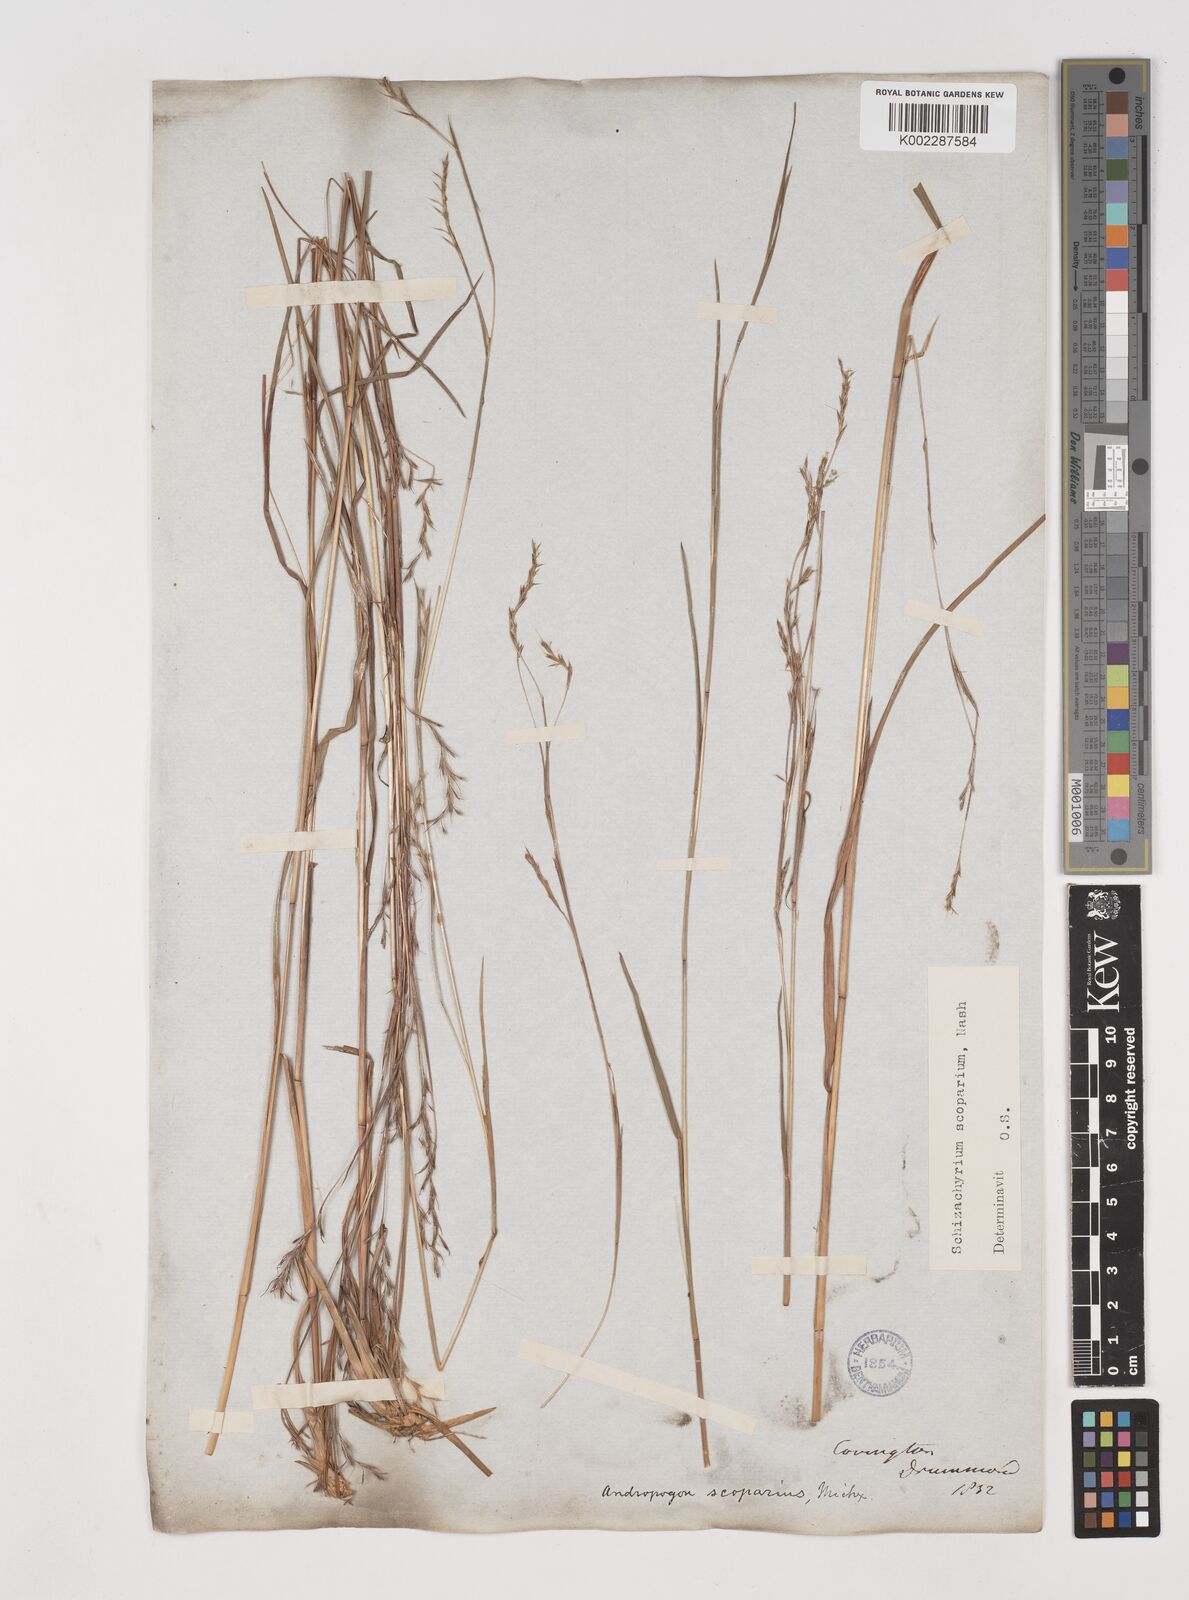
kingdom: Plantae
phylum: Tracheophyta
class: Liliopsida
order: Poales
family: Poaceae
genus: Schizachyrium
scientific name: Schizachyrium scoparium
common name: Little bluestem
